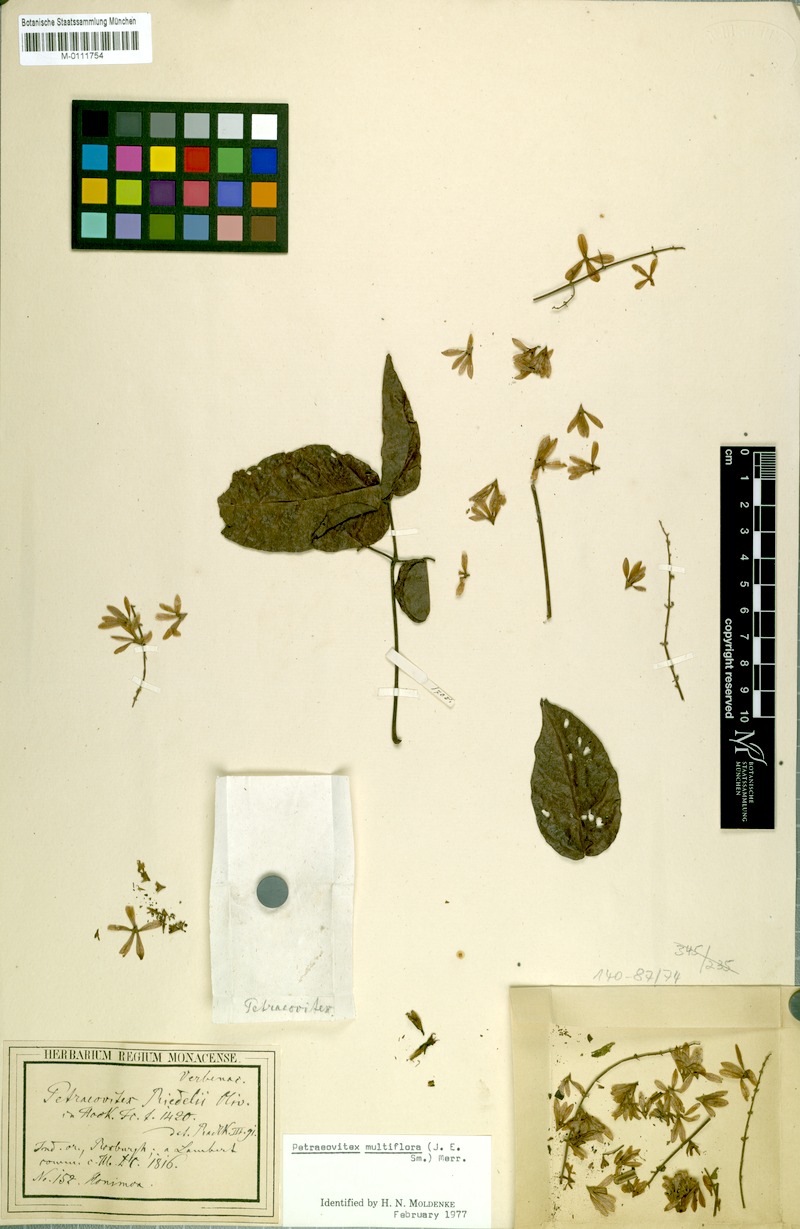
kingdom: Plantae
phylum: Tracheophyta
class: Magnoliopsida
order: Lamiales
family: Lamiaceae
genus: Petraeovitex
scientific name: Petraeovitex multiflora
